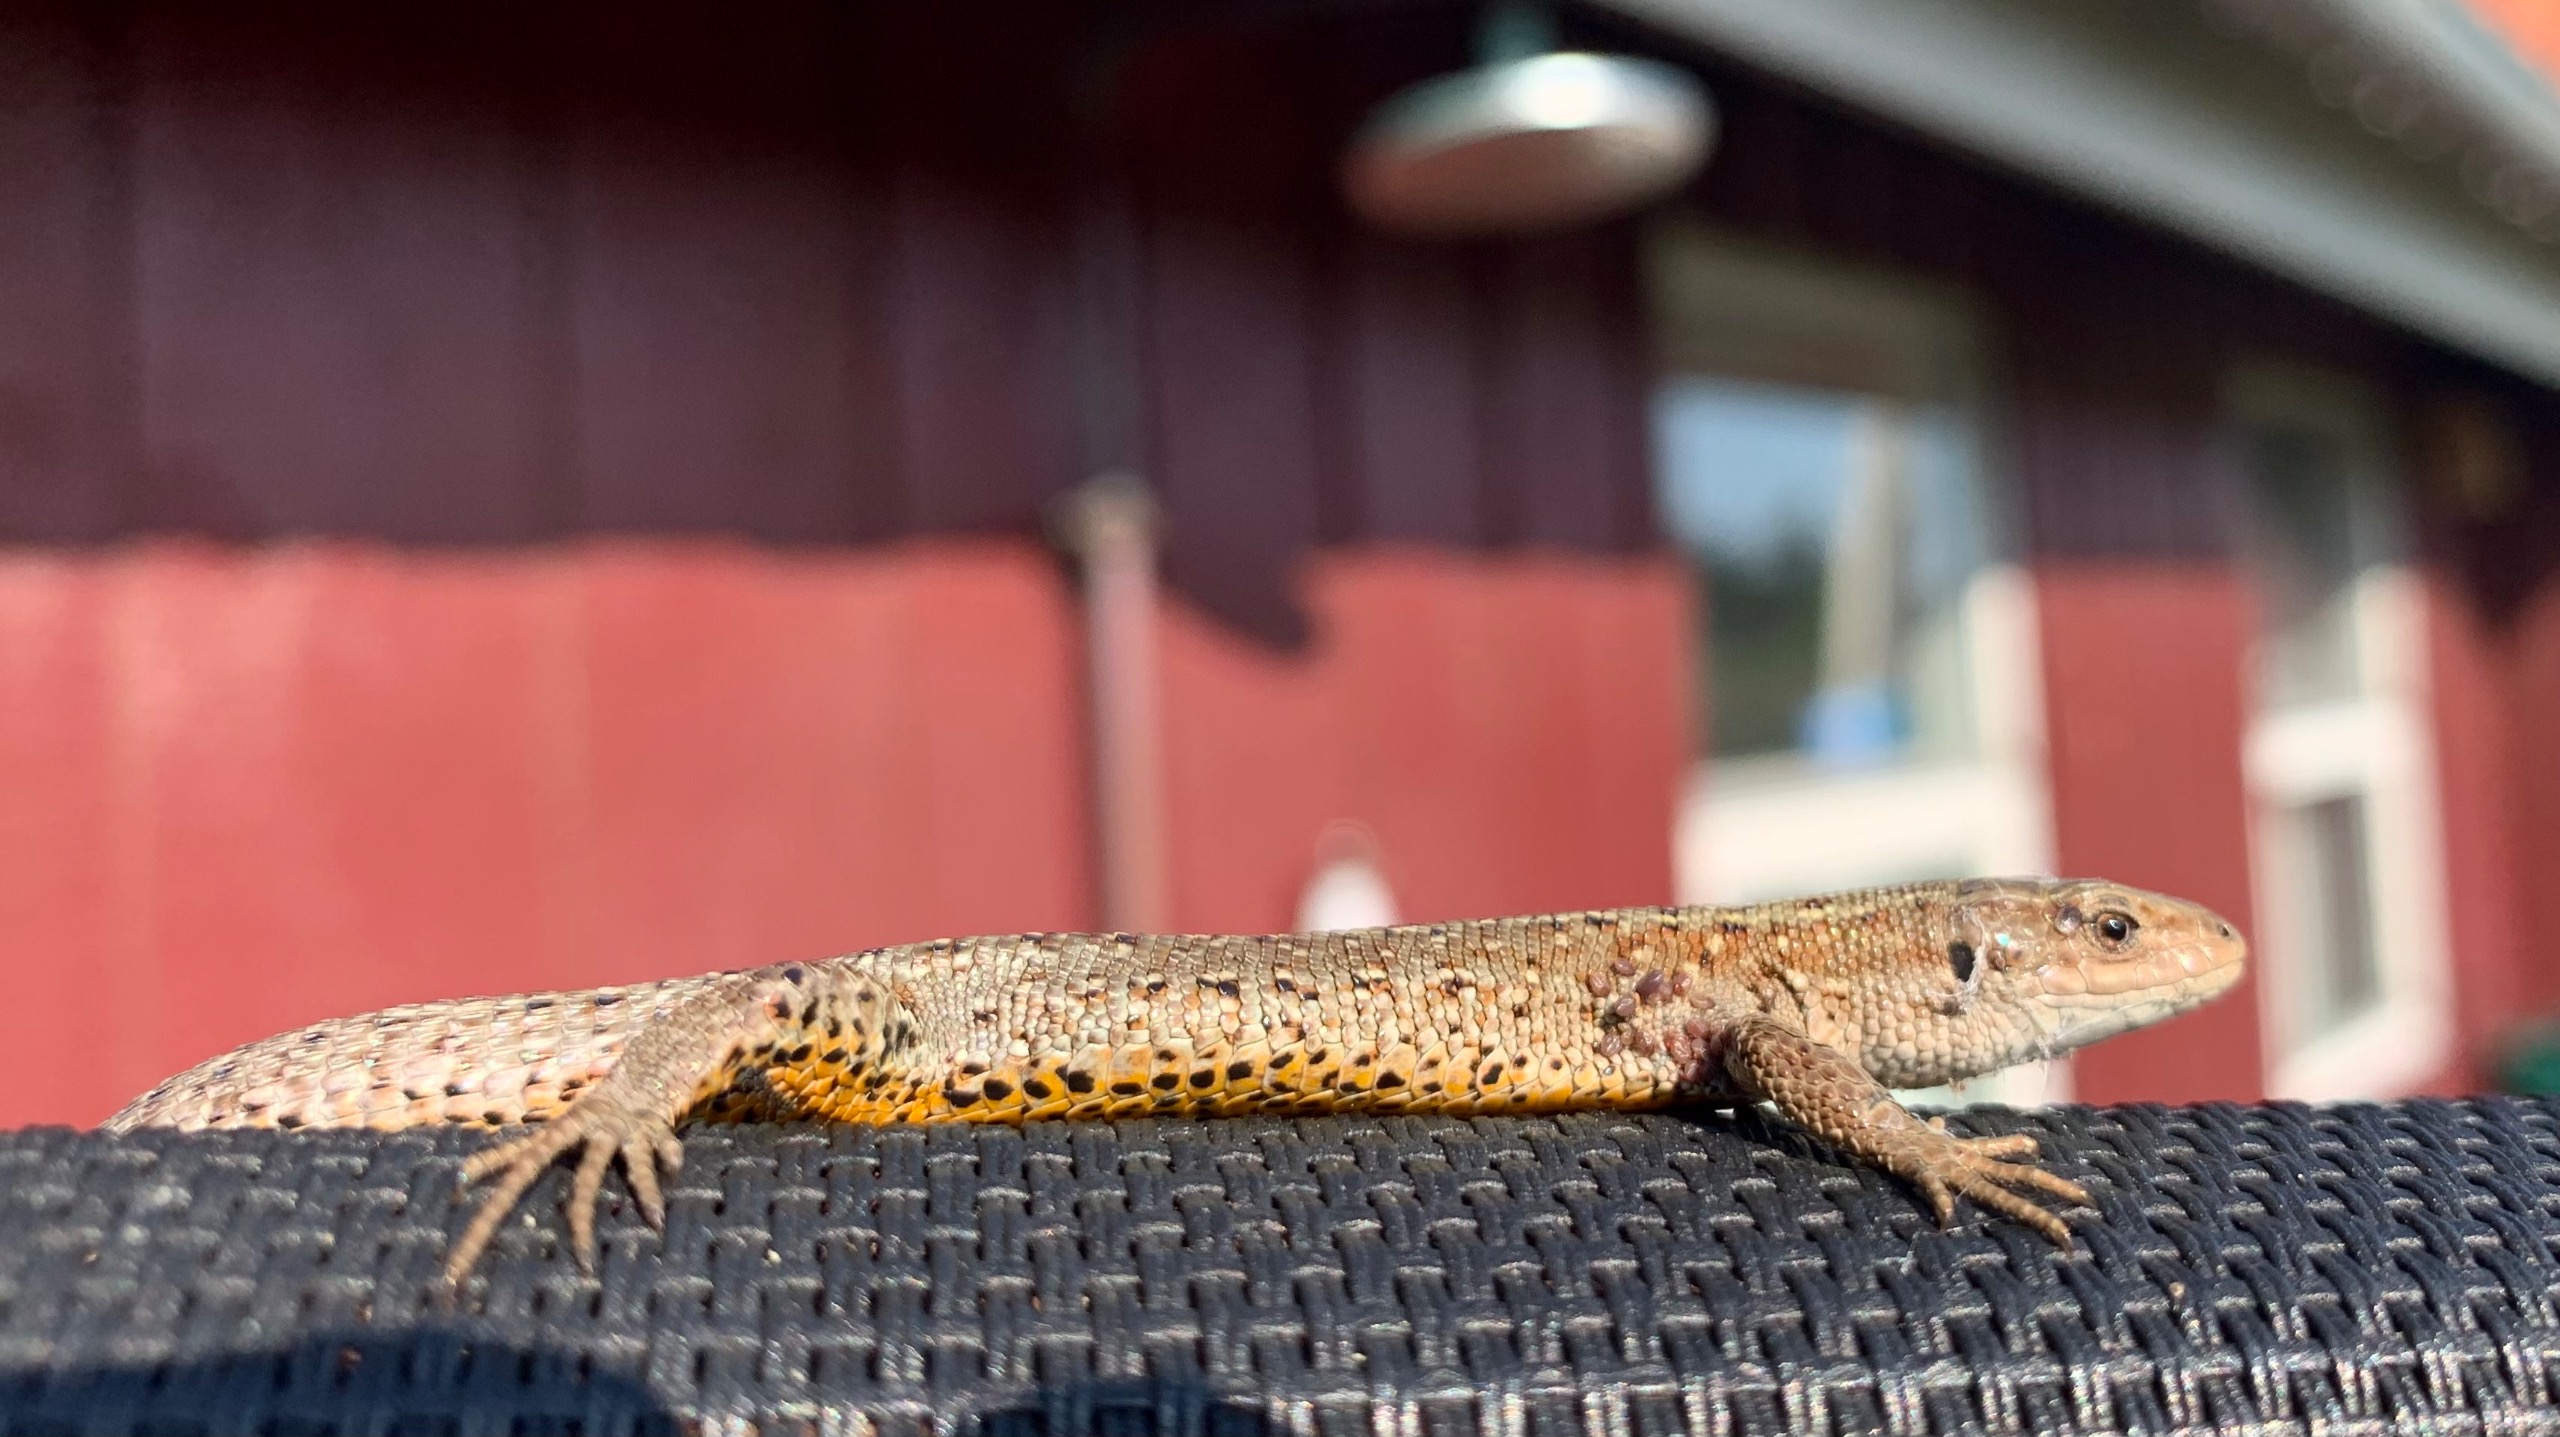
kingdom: Animalia
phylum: Chordata
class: Squamata
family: Lacertidae
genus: Zootoca
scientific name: Zootoca vivipara
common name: Skovfirben
